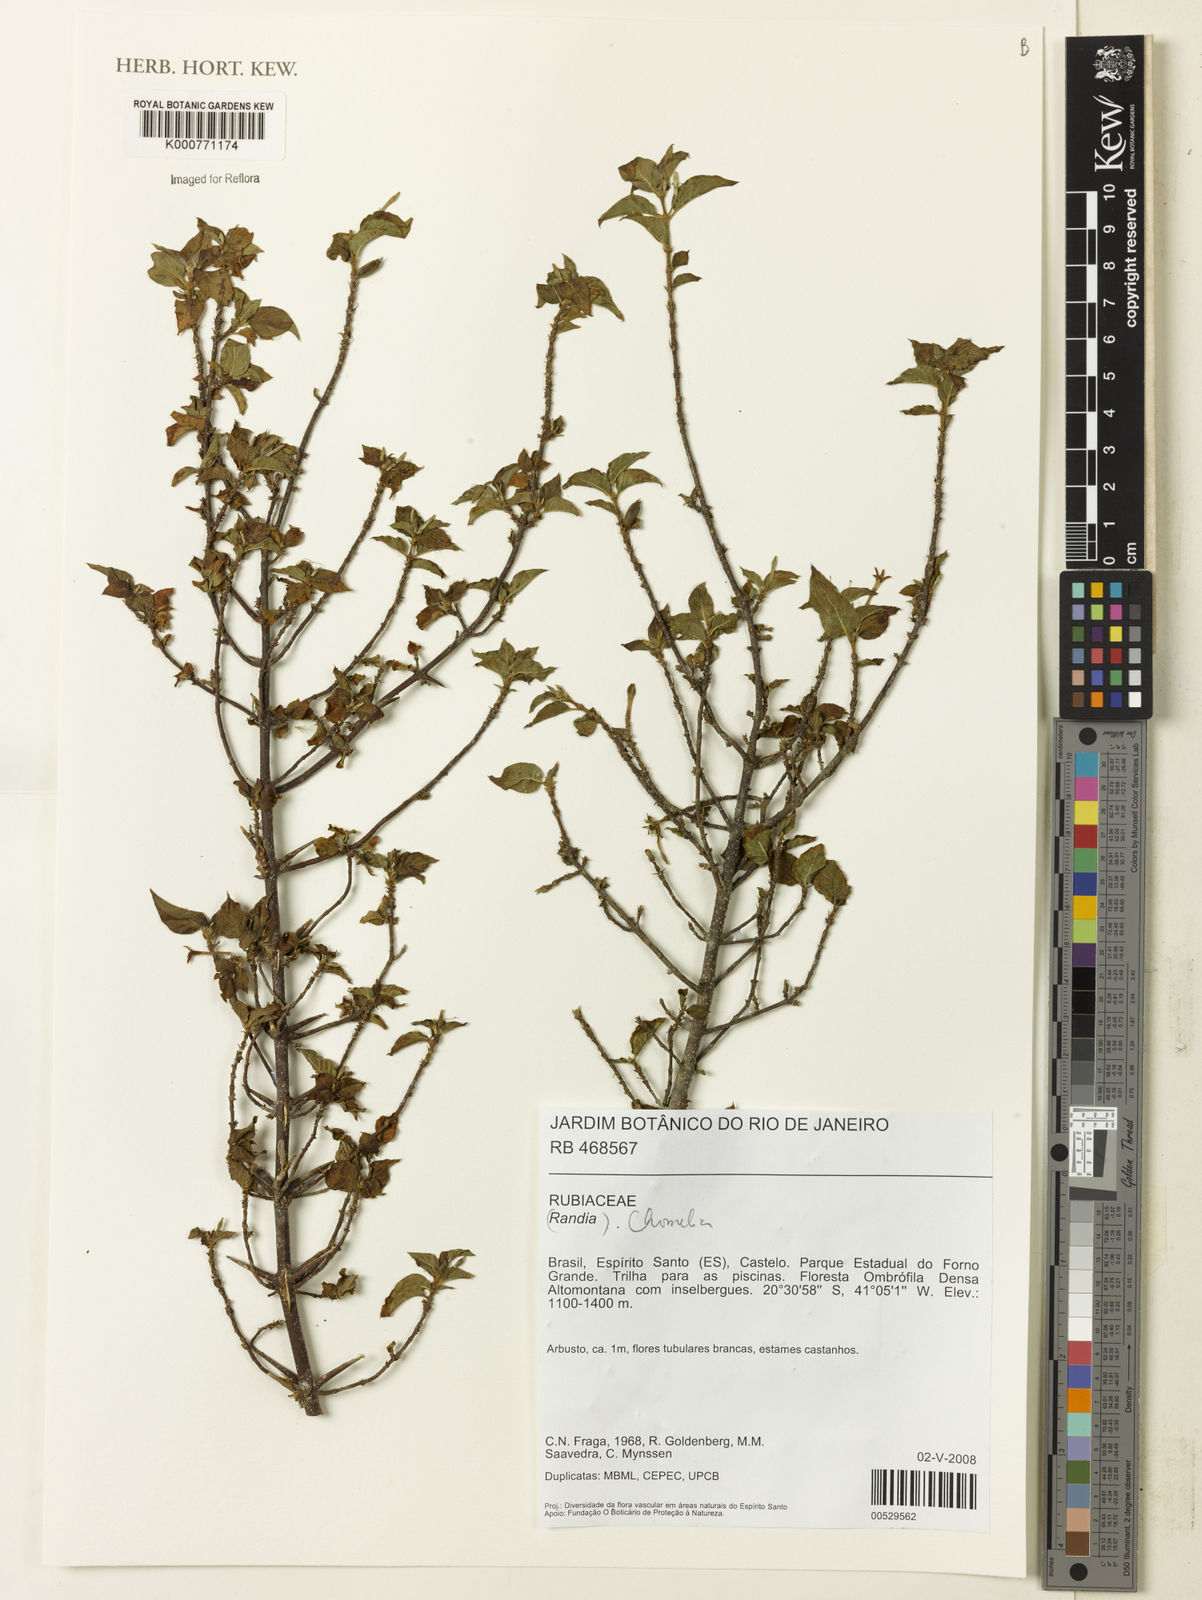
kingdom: Plantae
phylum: Tracheophyta
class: Magnoliopsida
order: Gentianales
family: Rubiaceae
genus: Chomelia
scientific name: Chomelia
